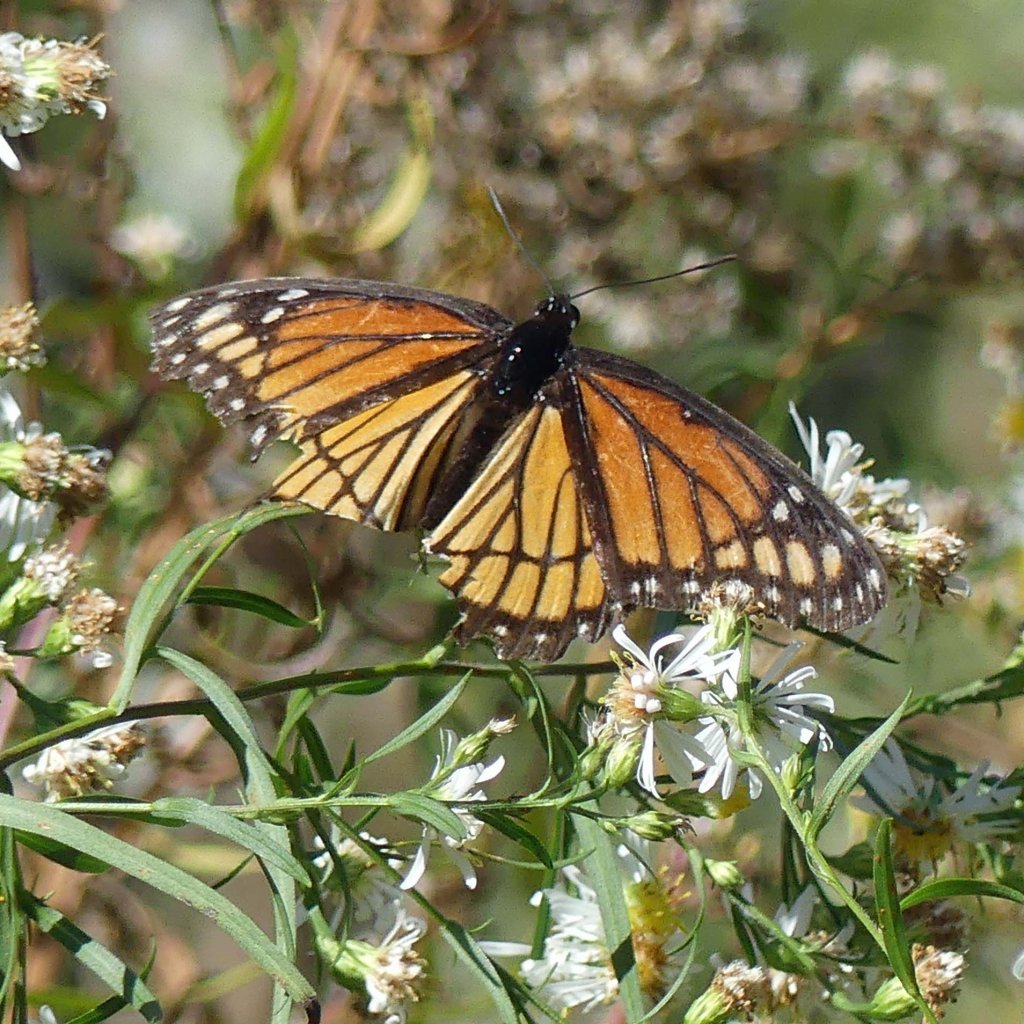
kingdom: Animalia
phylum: Arthropoda
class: Insecta
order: Lepidoptera
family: Nymphalidae
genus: Limenitis
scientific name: Limenitis archippus
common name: Viceroy
